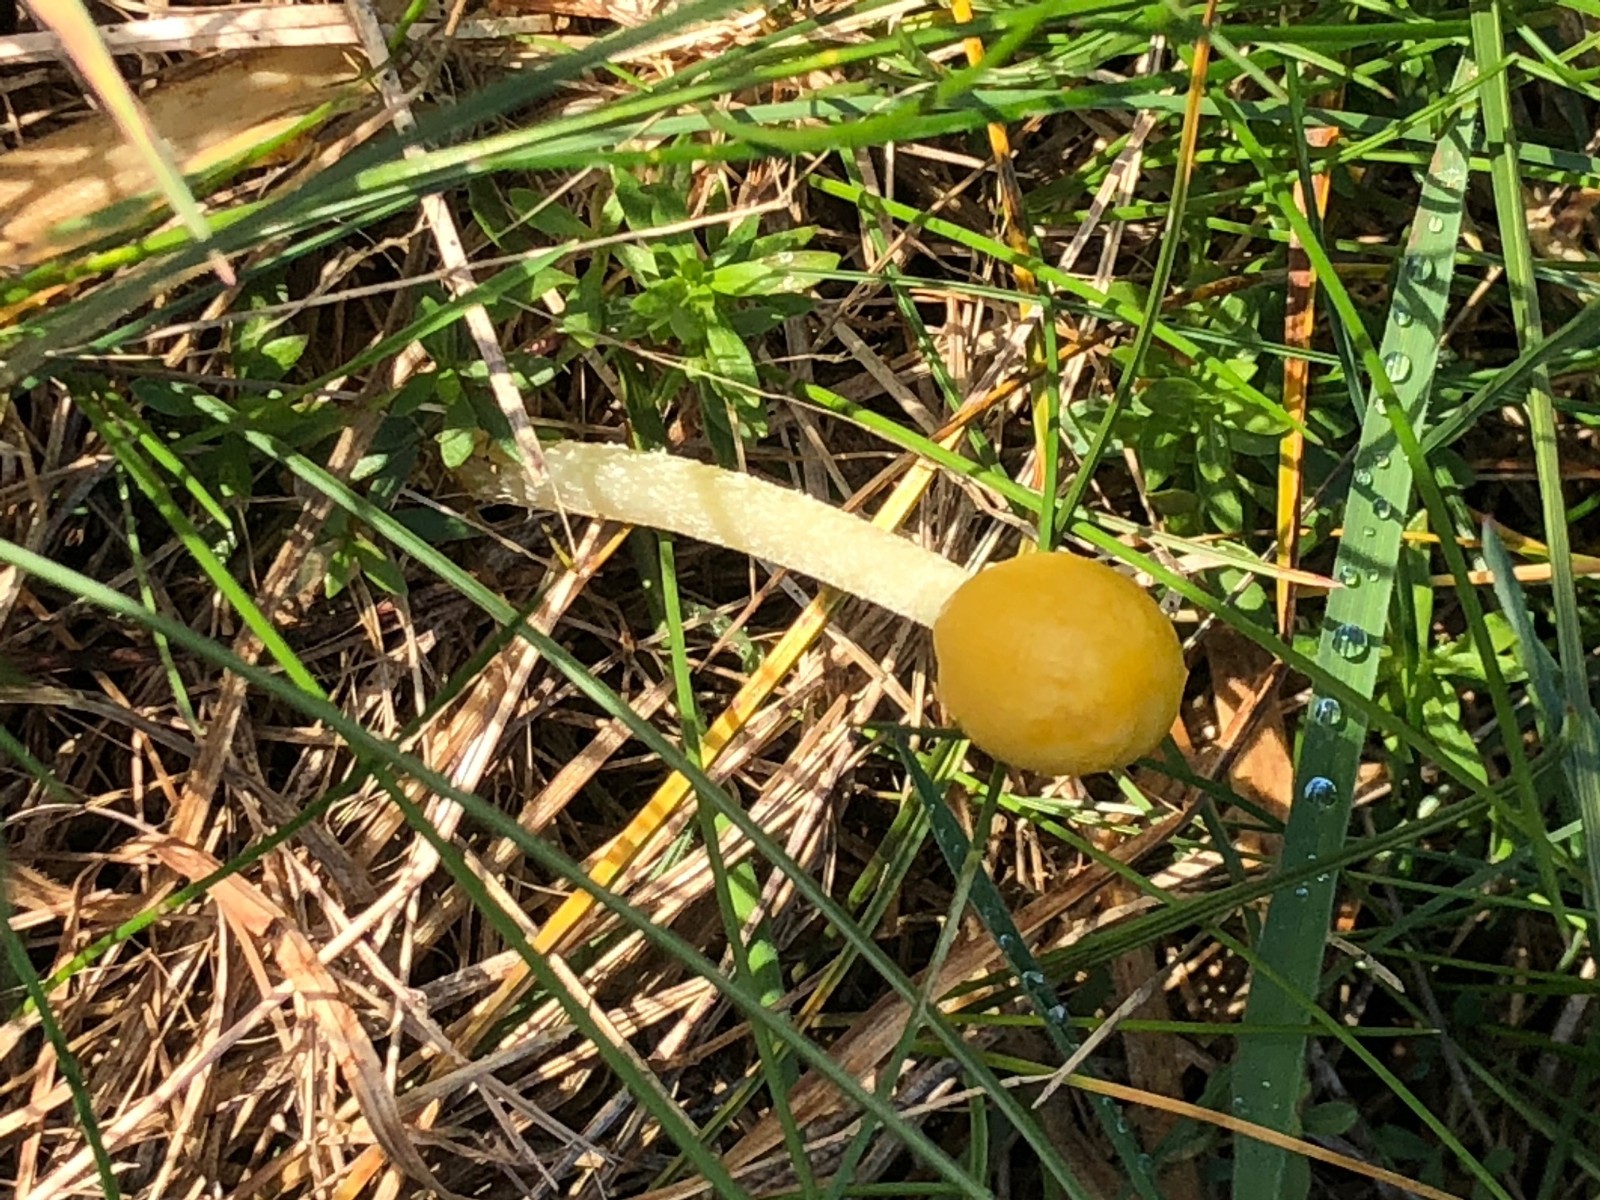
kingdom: Fungi
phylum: Basidiomycota
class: Agaricomycetes
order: Agaricales
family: Bolbitiaceae
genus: Bolbitius
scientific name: Bolbitius titubans
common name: almindelig gulhat
